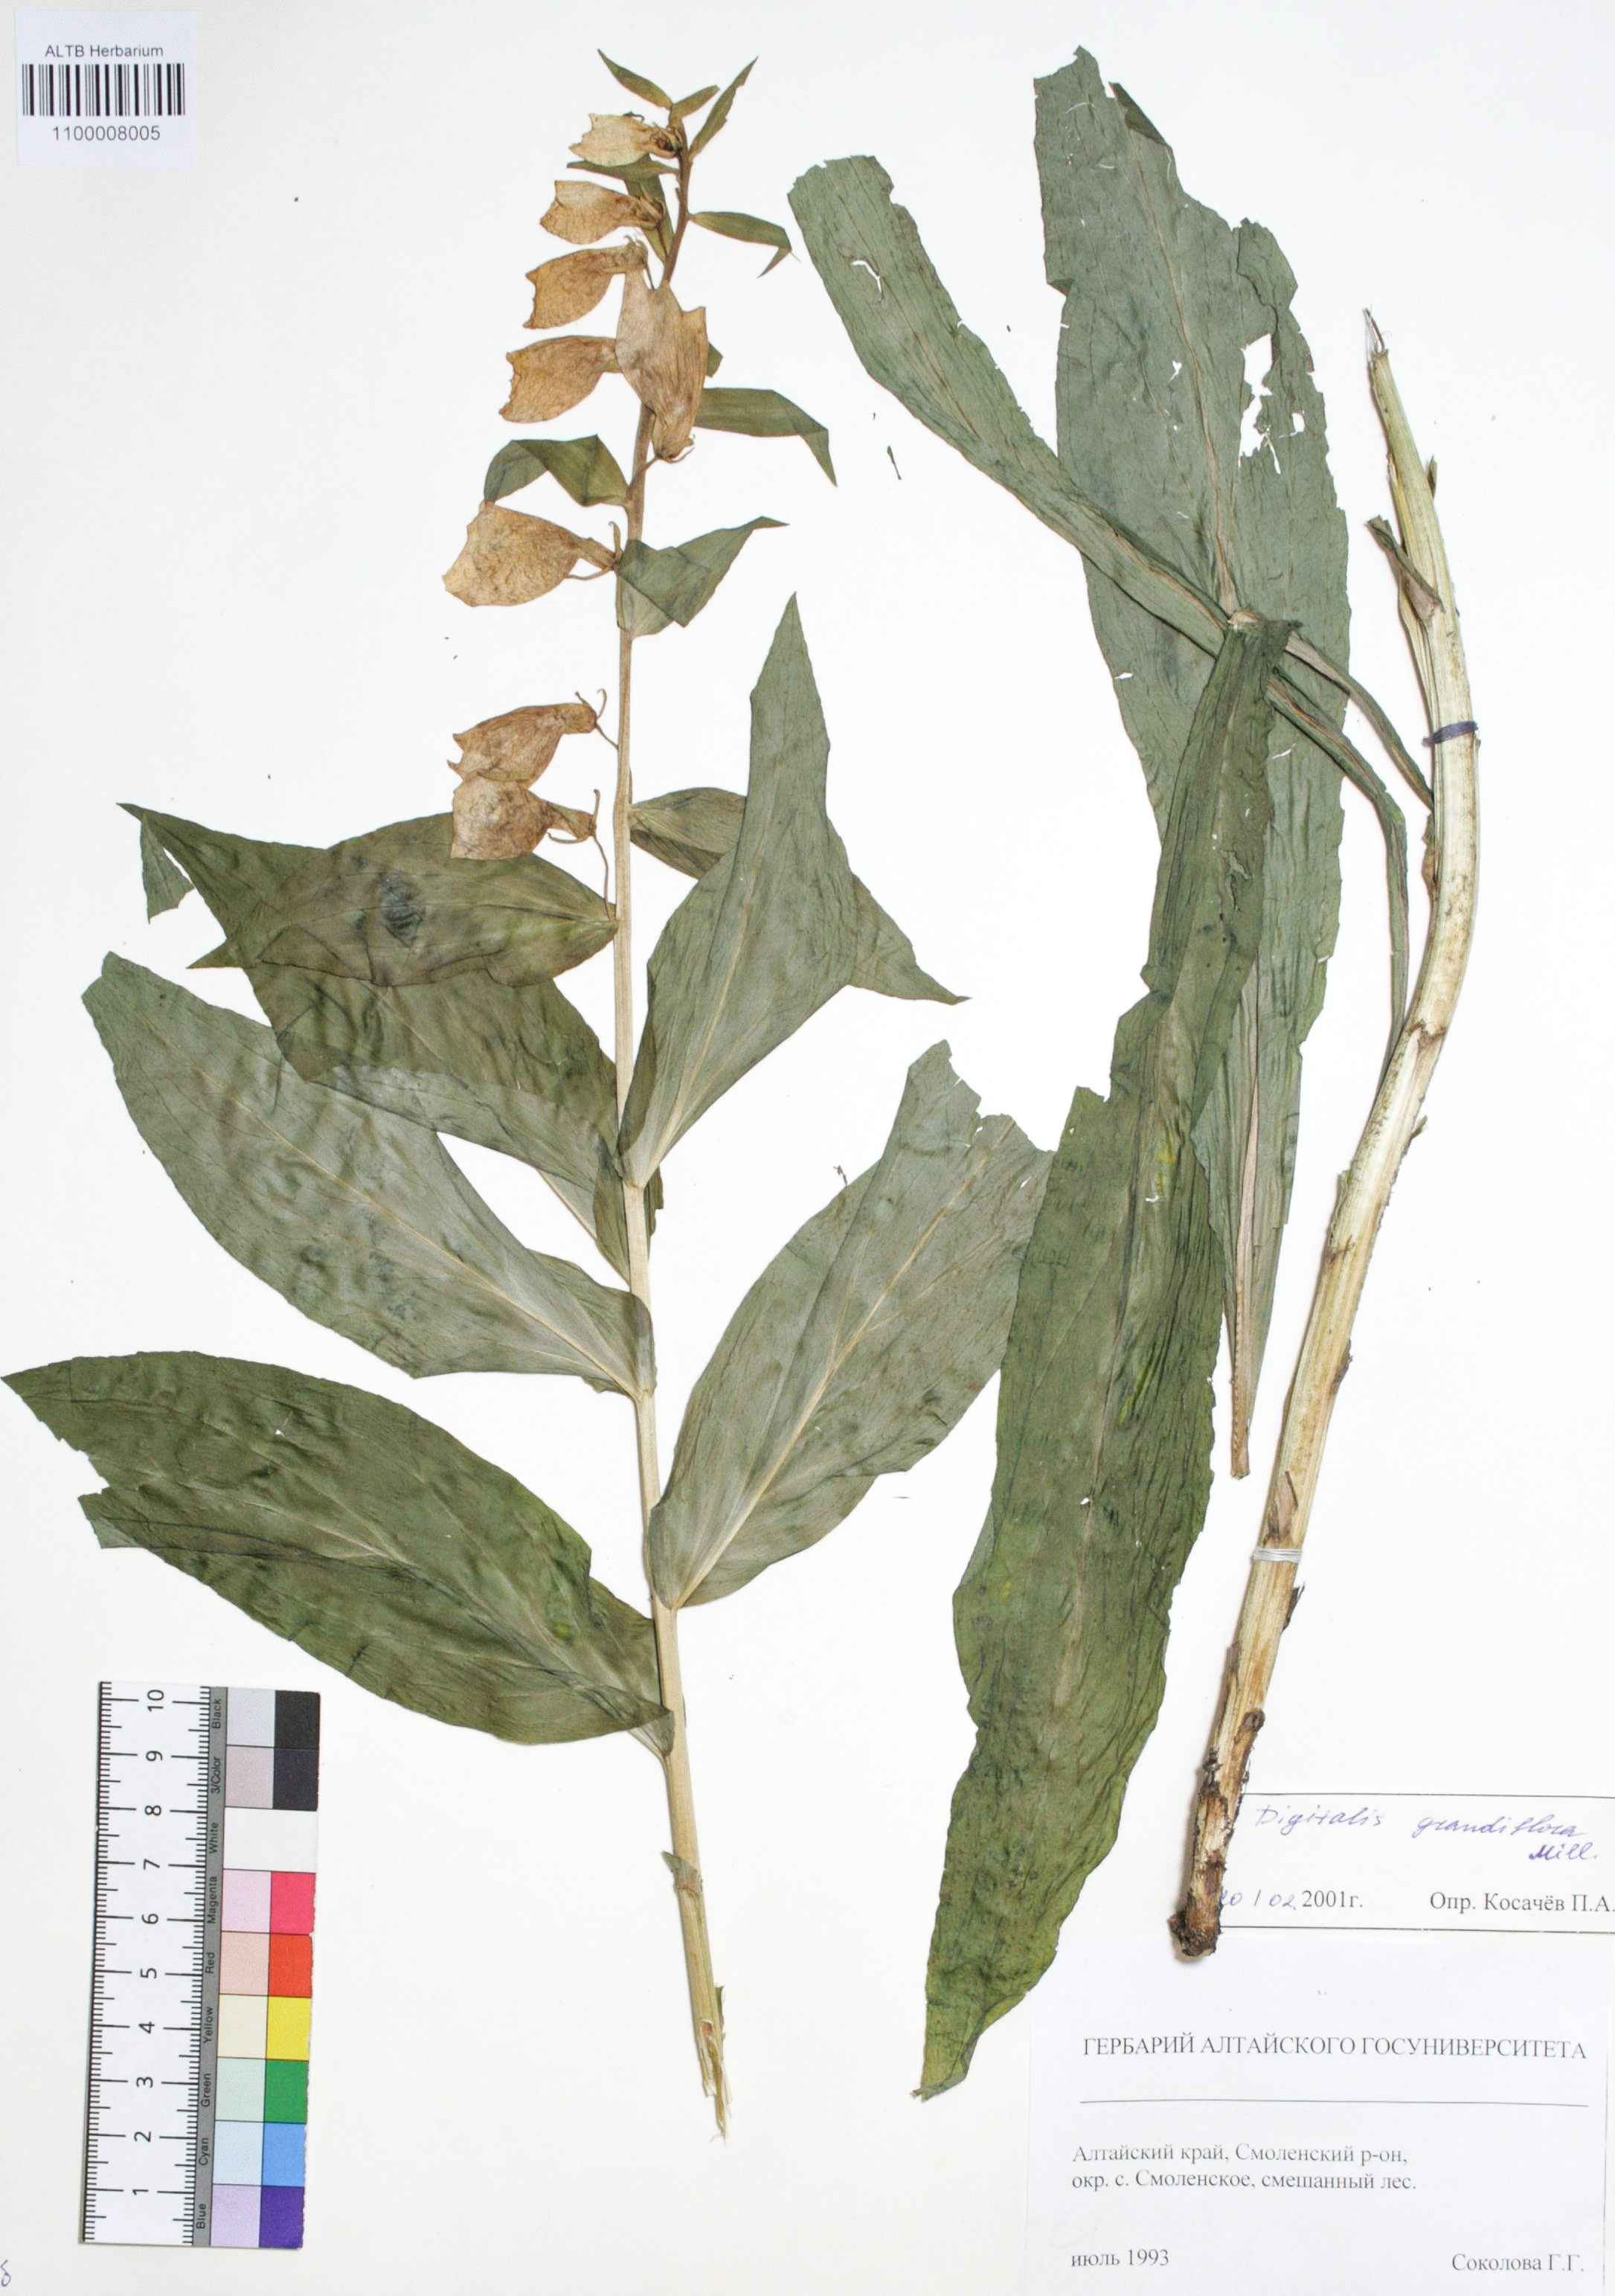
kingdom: Plantae
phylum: Tracheophyta
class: Magnoliopsida
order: Lamiales
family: Plantaginaceae
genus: Digitalis
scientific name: Digitalis grandiflora
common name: Yellow foxglove
